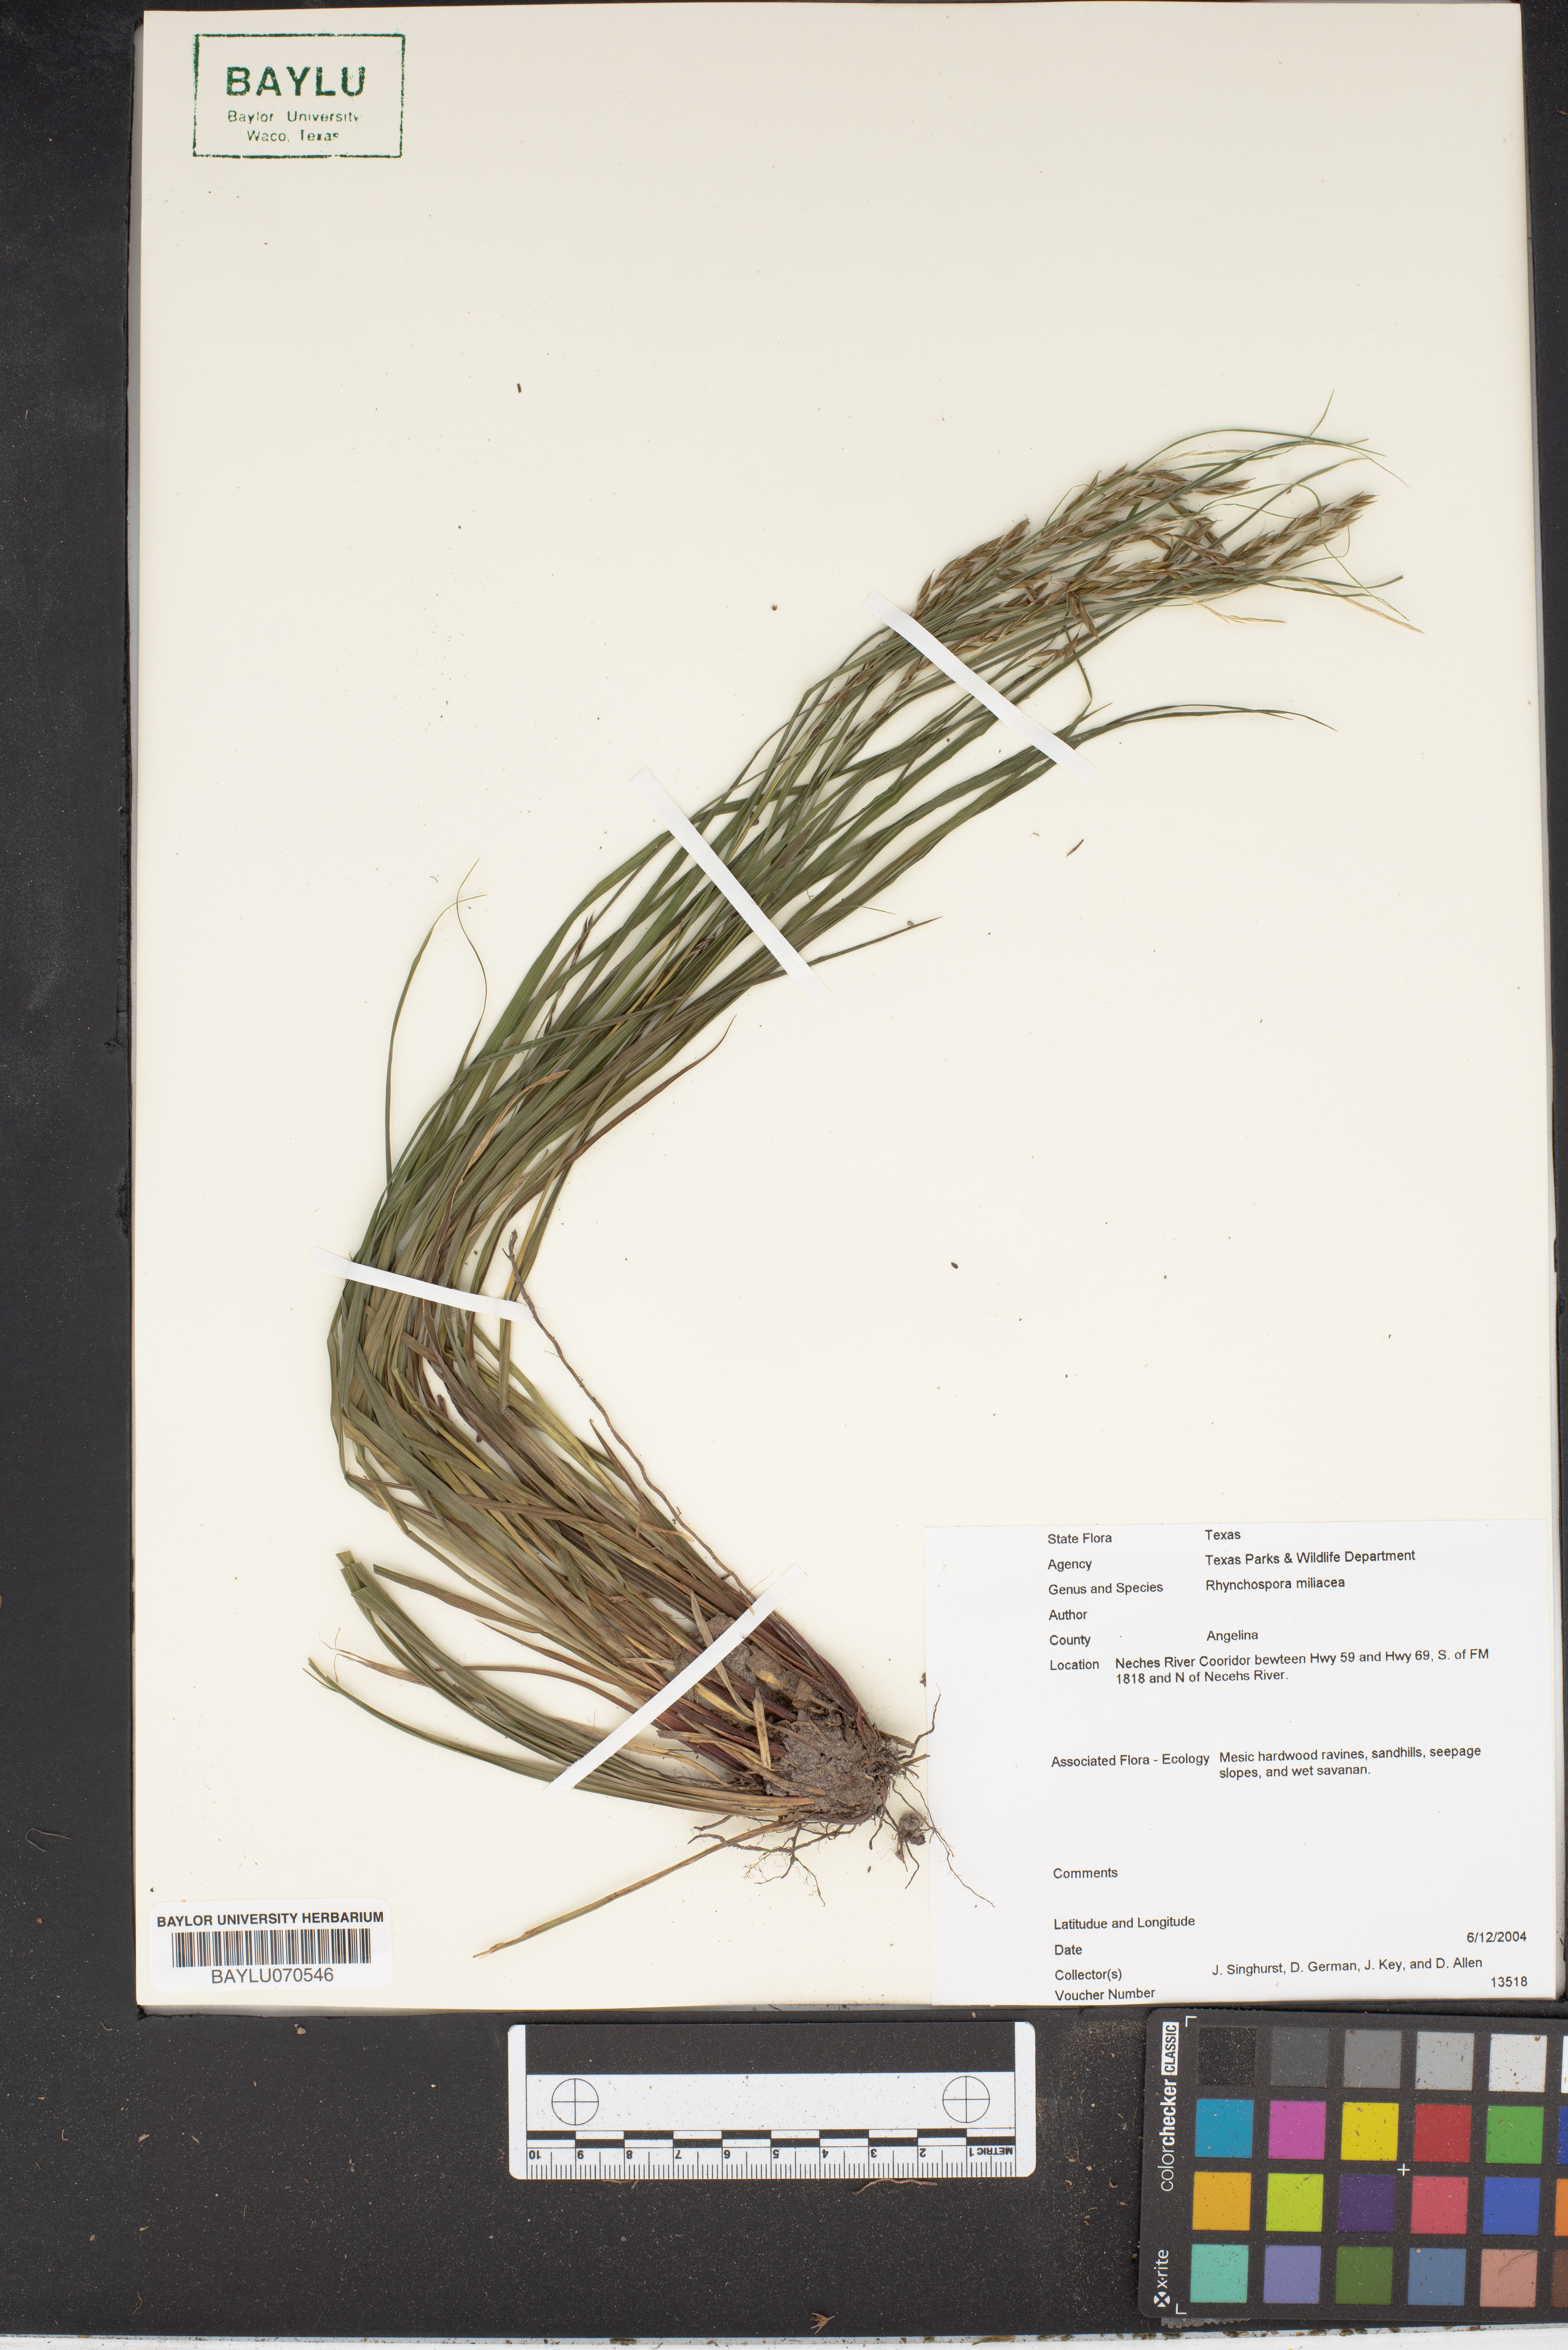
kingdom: Plantae
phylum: Tracheophyta
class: Liliopsida
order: Poales
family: Cyperaceae
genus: Rhynchospora
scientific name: Rhynchospora miliacea
